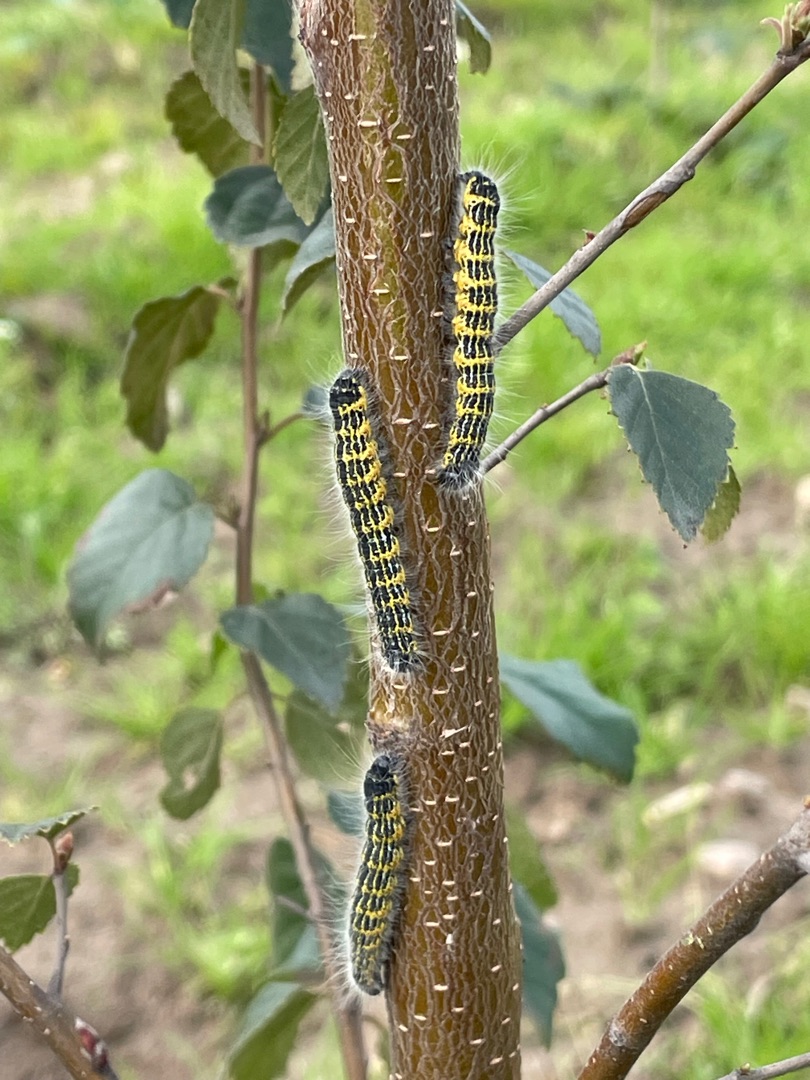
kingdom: Animalia
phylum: Arthropoda
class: Insecta
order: Lepidoptera
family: Notodontidae
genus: Phalera
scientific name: Phalera bucephala
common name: Måneplet
